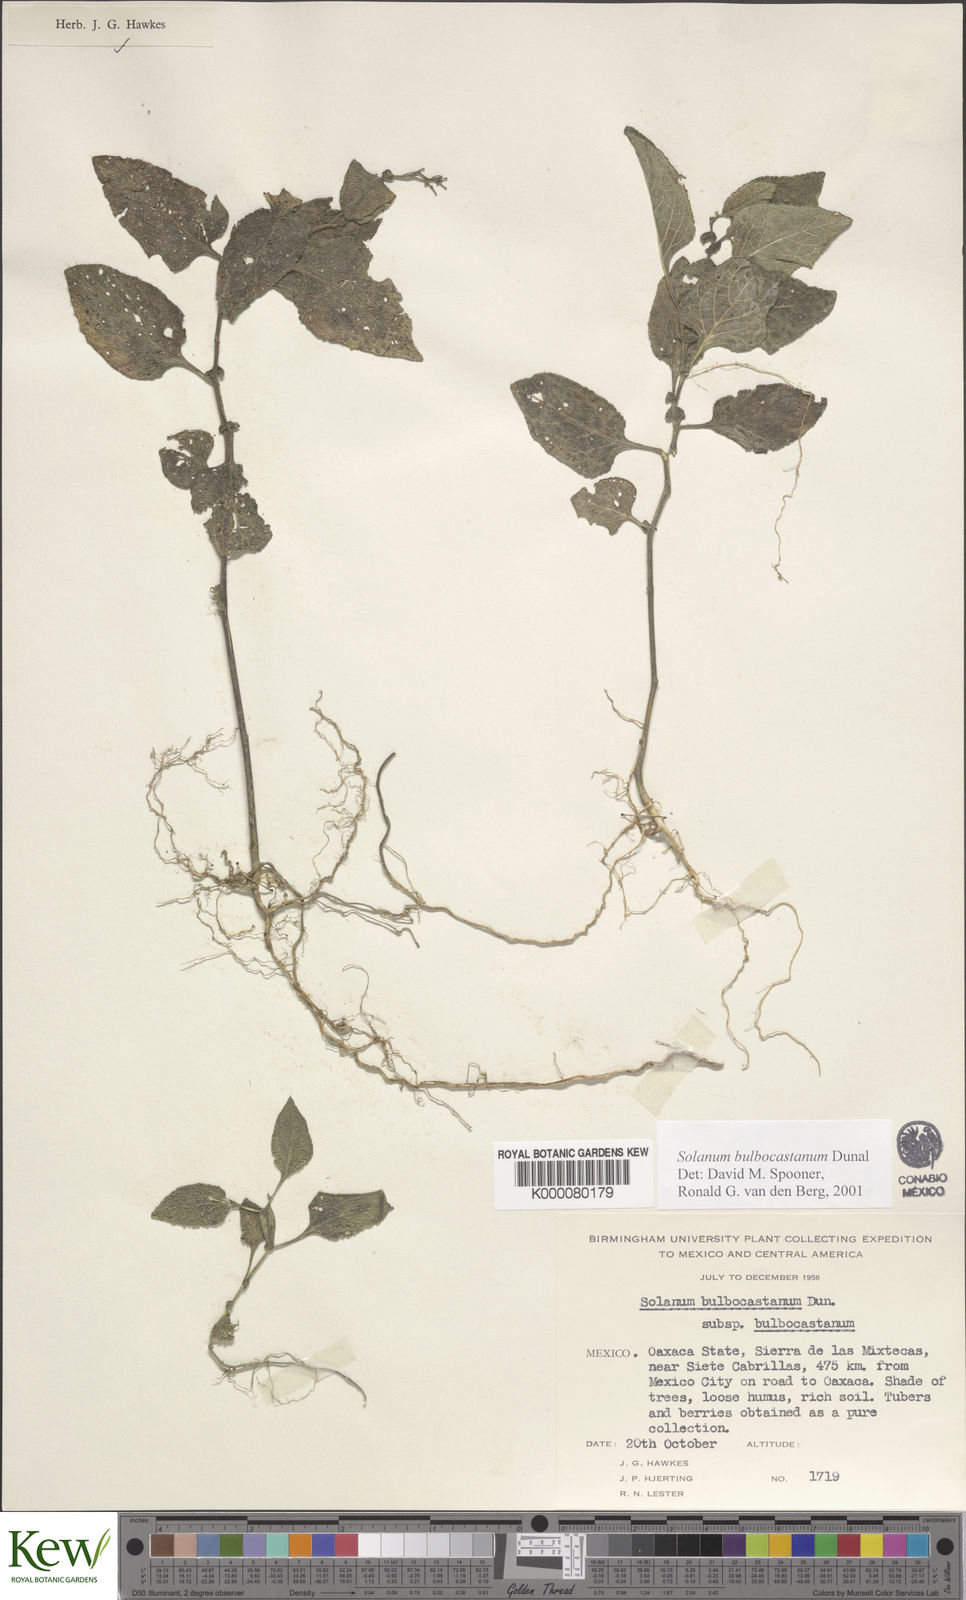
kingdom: Plantae
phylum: Tracheophyta
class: Magnoliopsida
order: Solanales
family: Solanaceae
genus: Solanum
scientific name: Solanum bulbocastanum
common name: Ornamental nightshade
